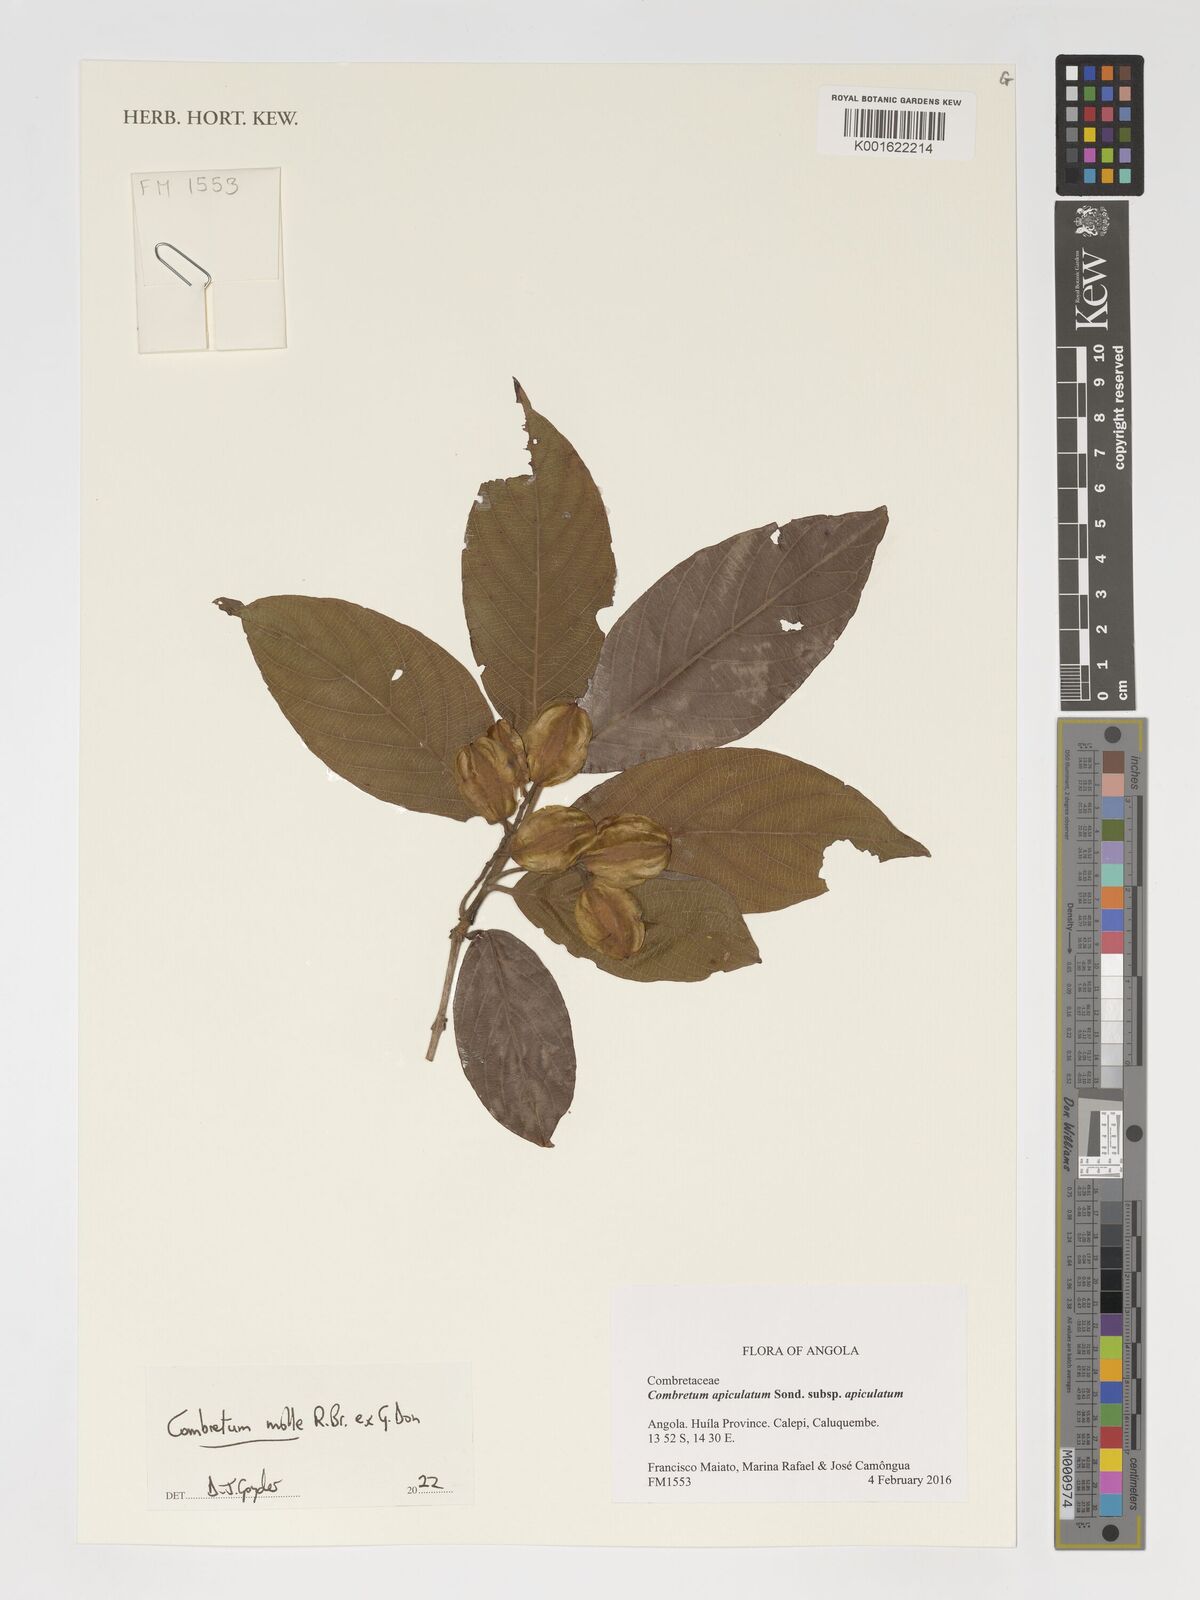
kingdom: Plantae
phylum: Tracheophyta
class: Magnoliopsida
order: Myrtales
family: Combretaceae
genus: Combretum
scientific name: Combretum molle
